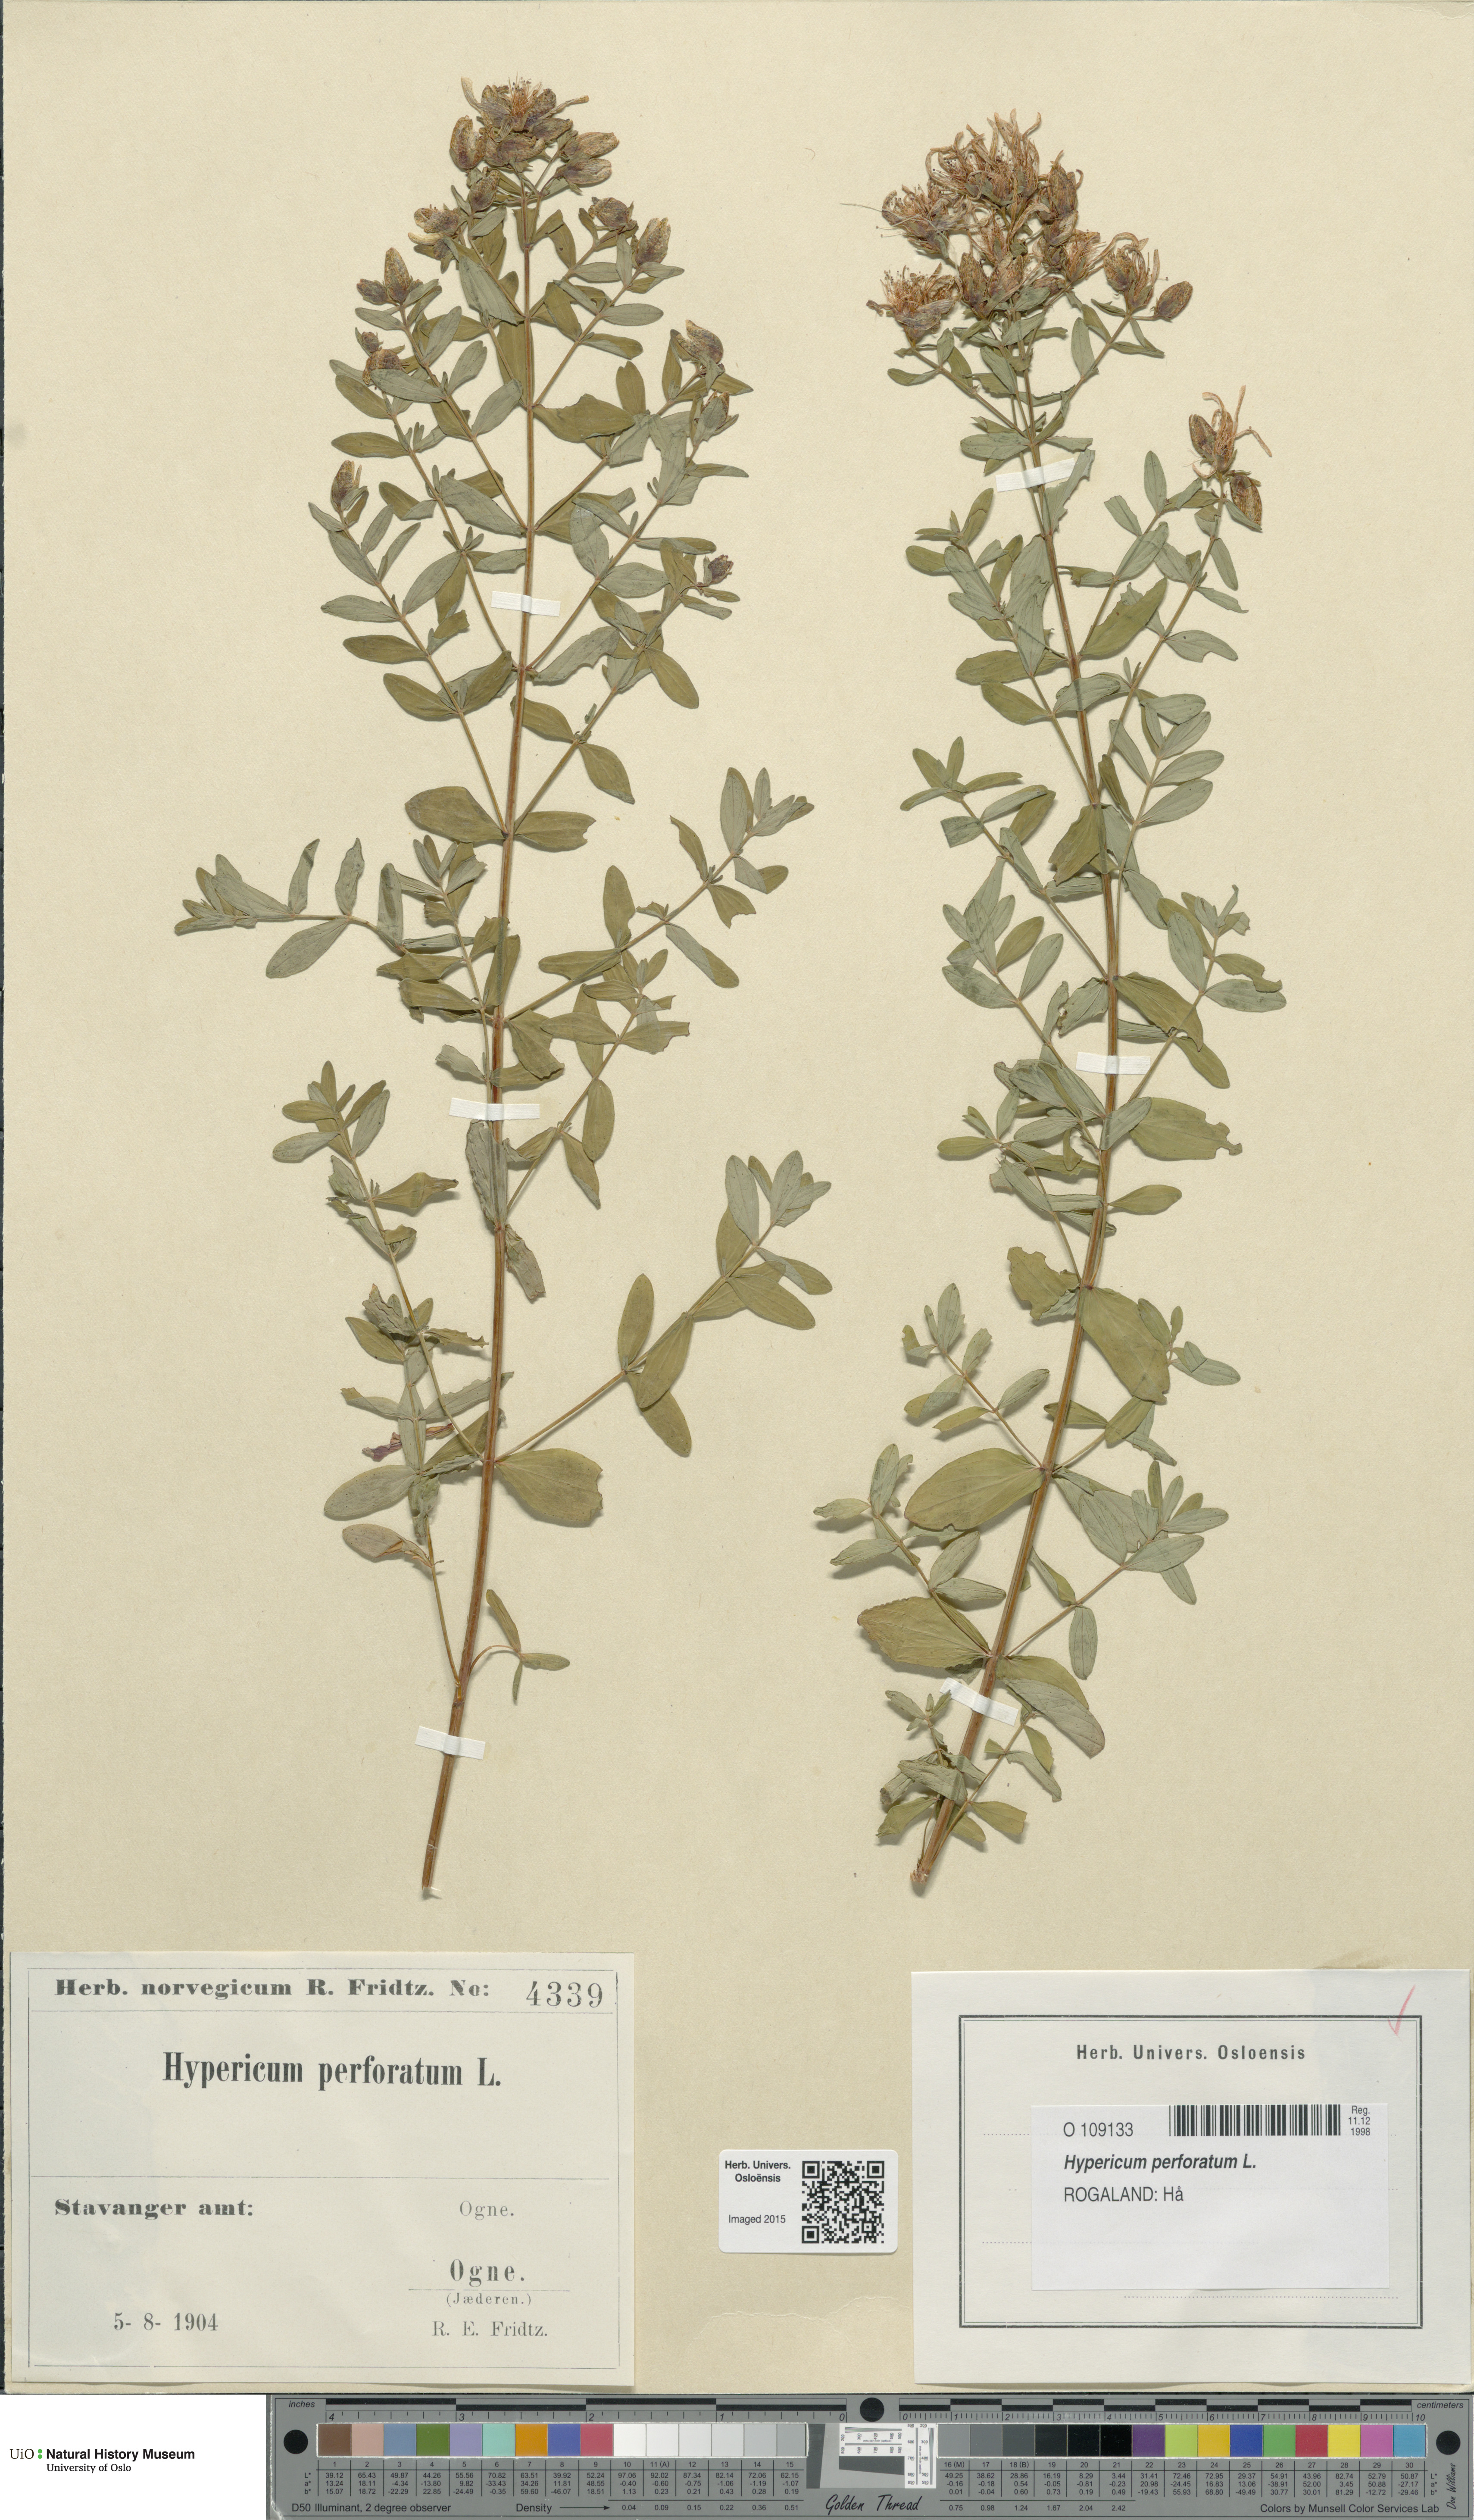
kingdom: Plantae
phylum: Tracheophyta
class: Magnoliopsida
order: Malpighiales
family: Hypericaceae
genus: Hypericum
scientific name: Hypericum perforatum
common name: Common st. johnswort
